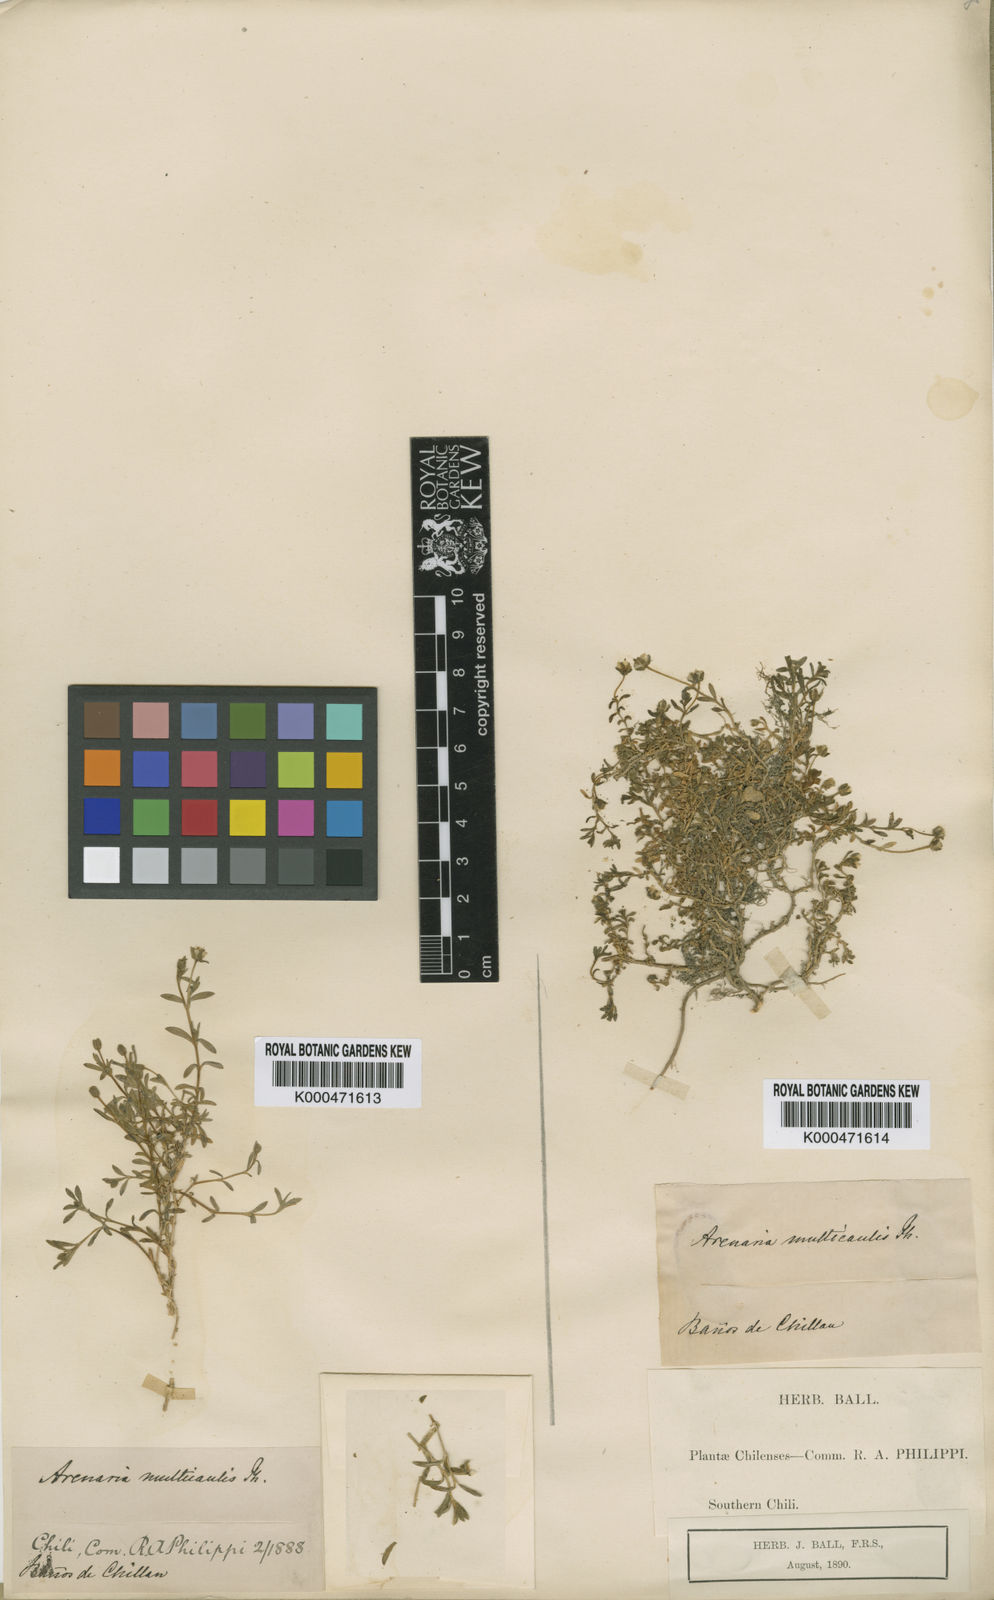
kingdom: Plantae
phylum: Tracheophyta
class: Magnoliopsida
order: Caryophyllales
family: Caryophyllaceae
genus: Arenaria
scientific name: Arenaria multicaulis
